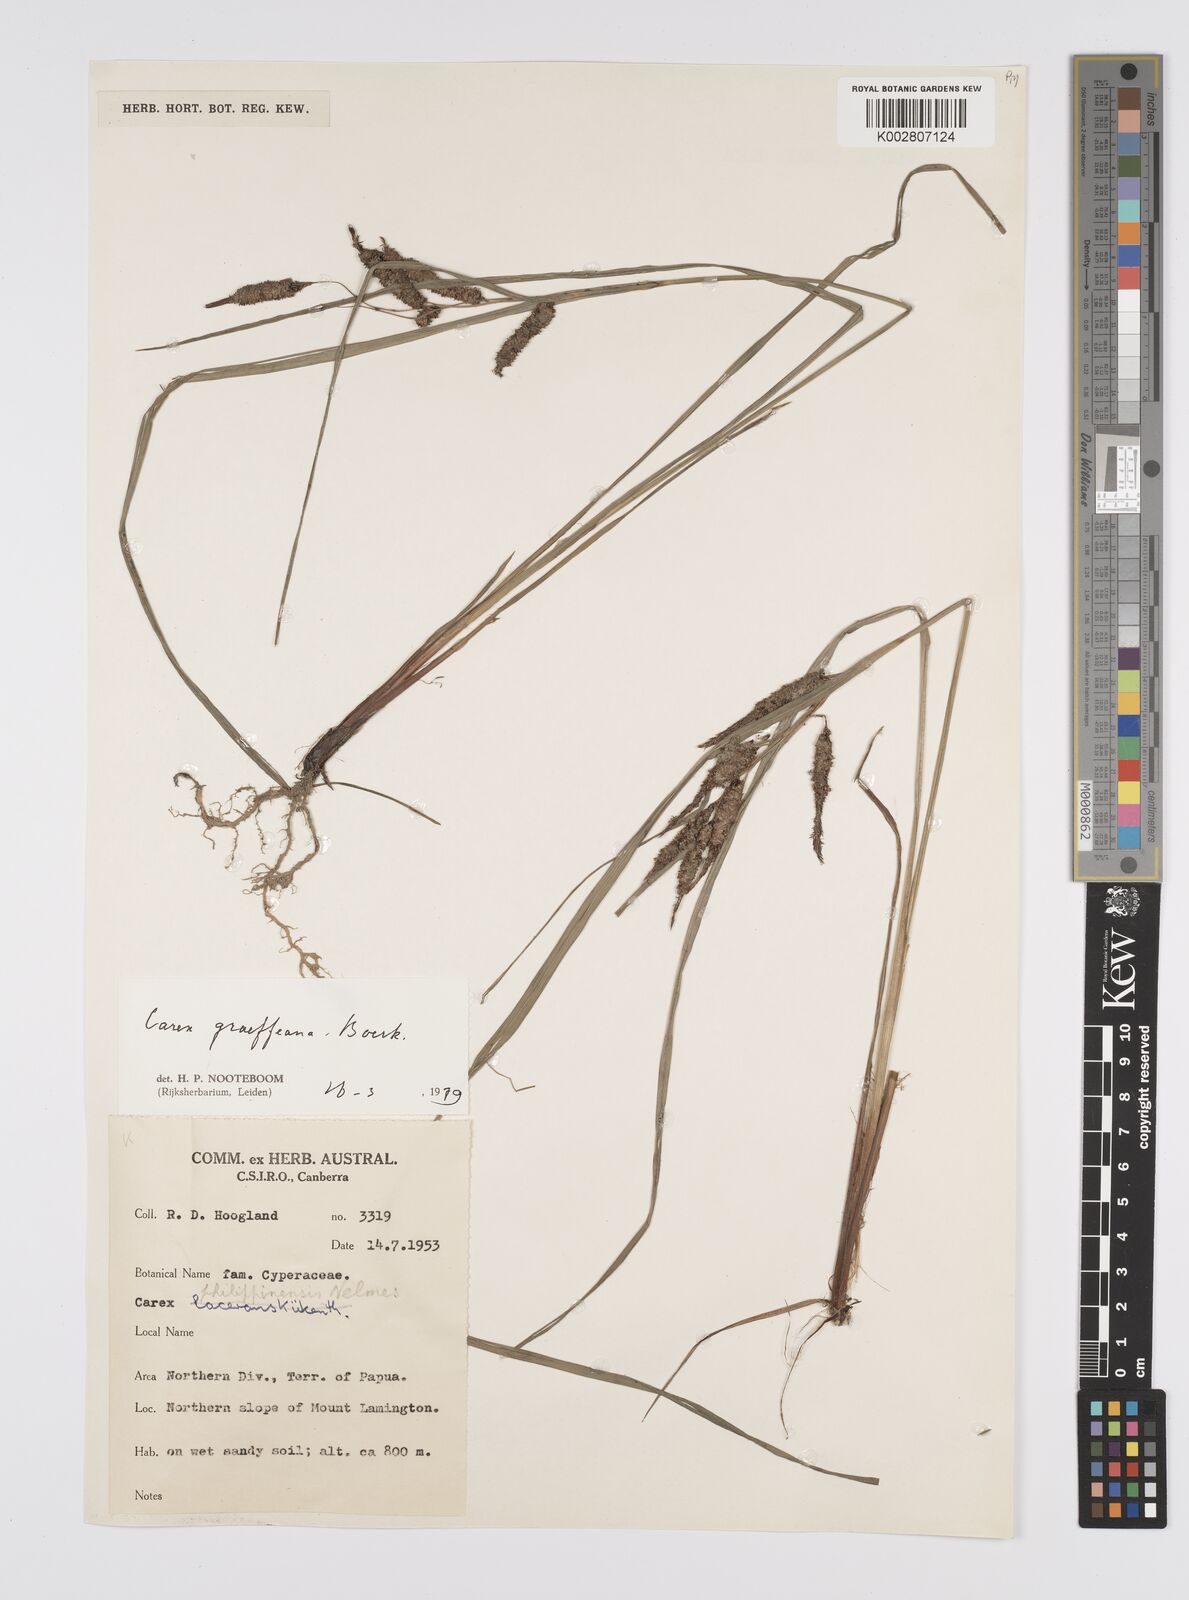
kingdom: Plantae
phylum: Tracheophyta
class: Liliopsida
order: Poales
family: Cyperaceae
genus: Carex
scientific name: Carex graeffeana
